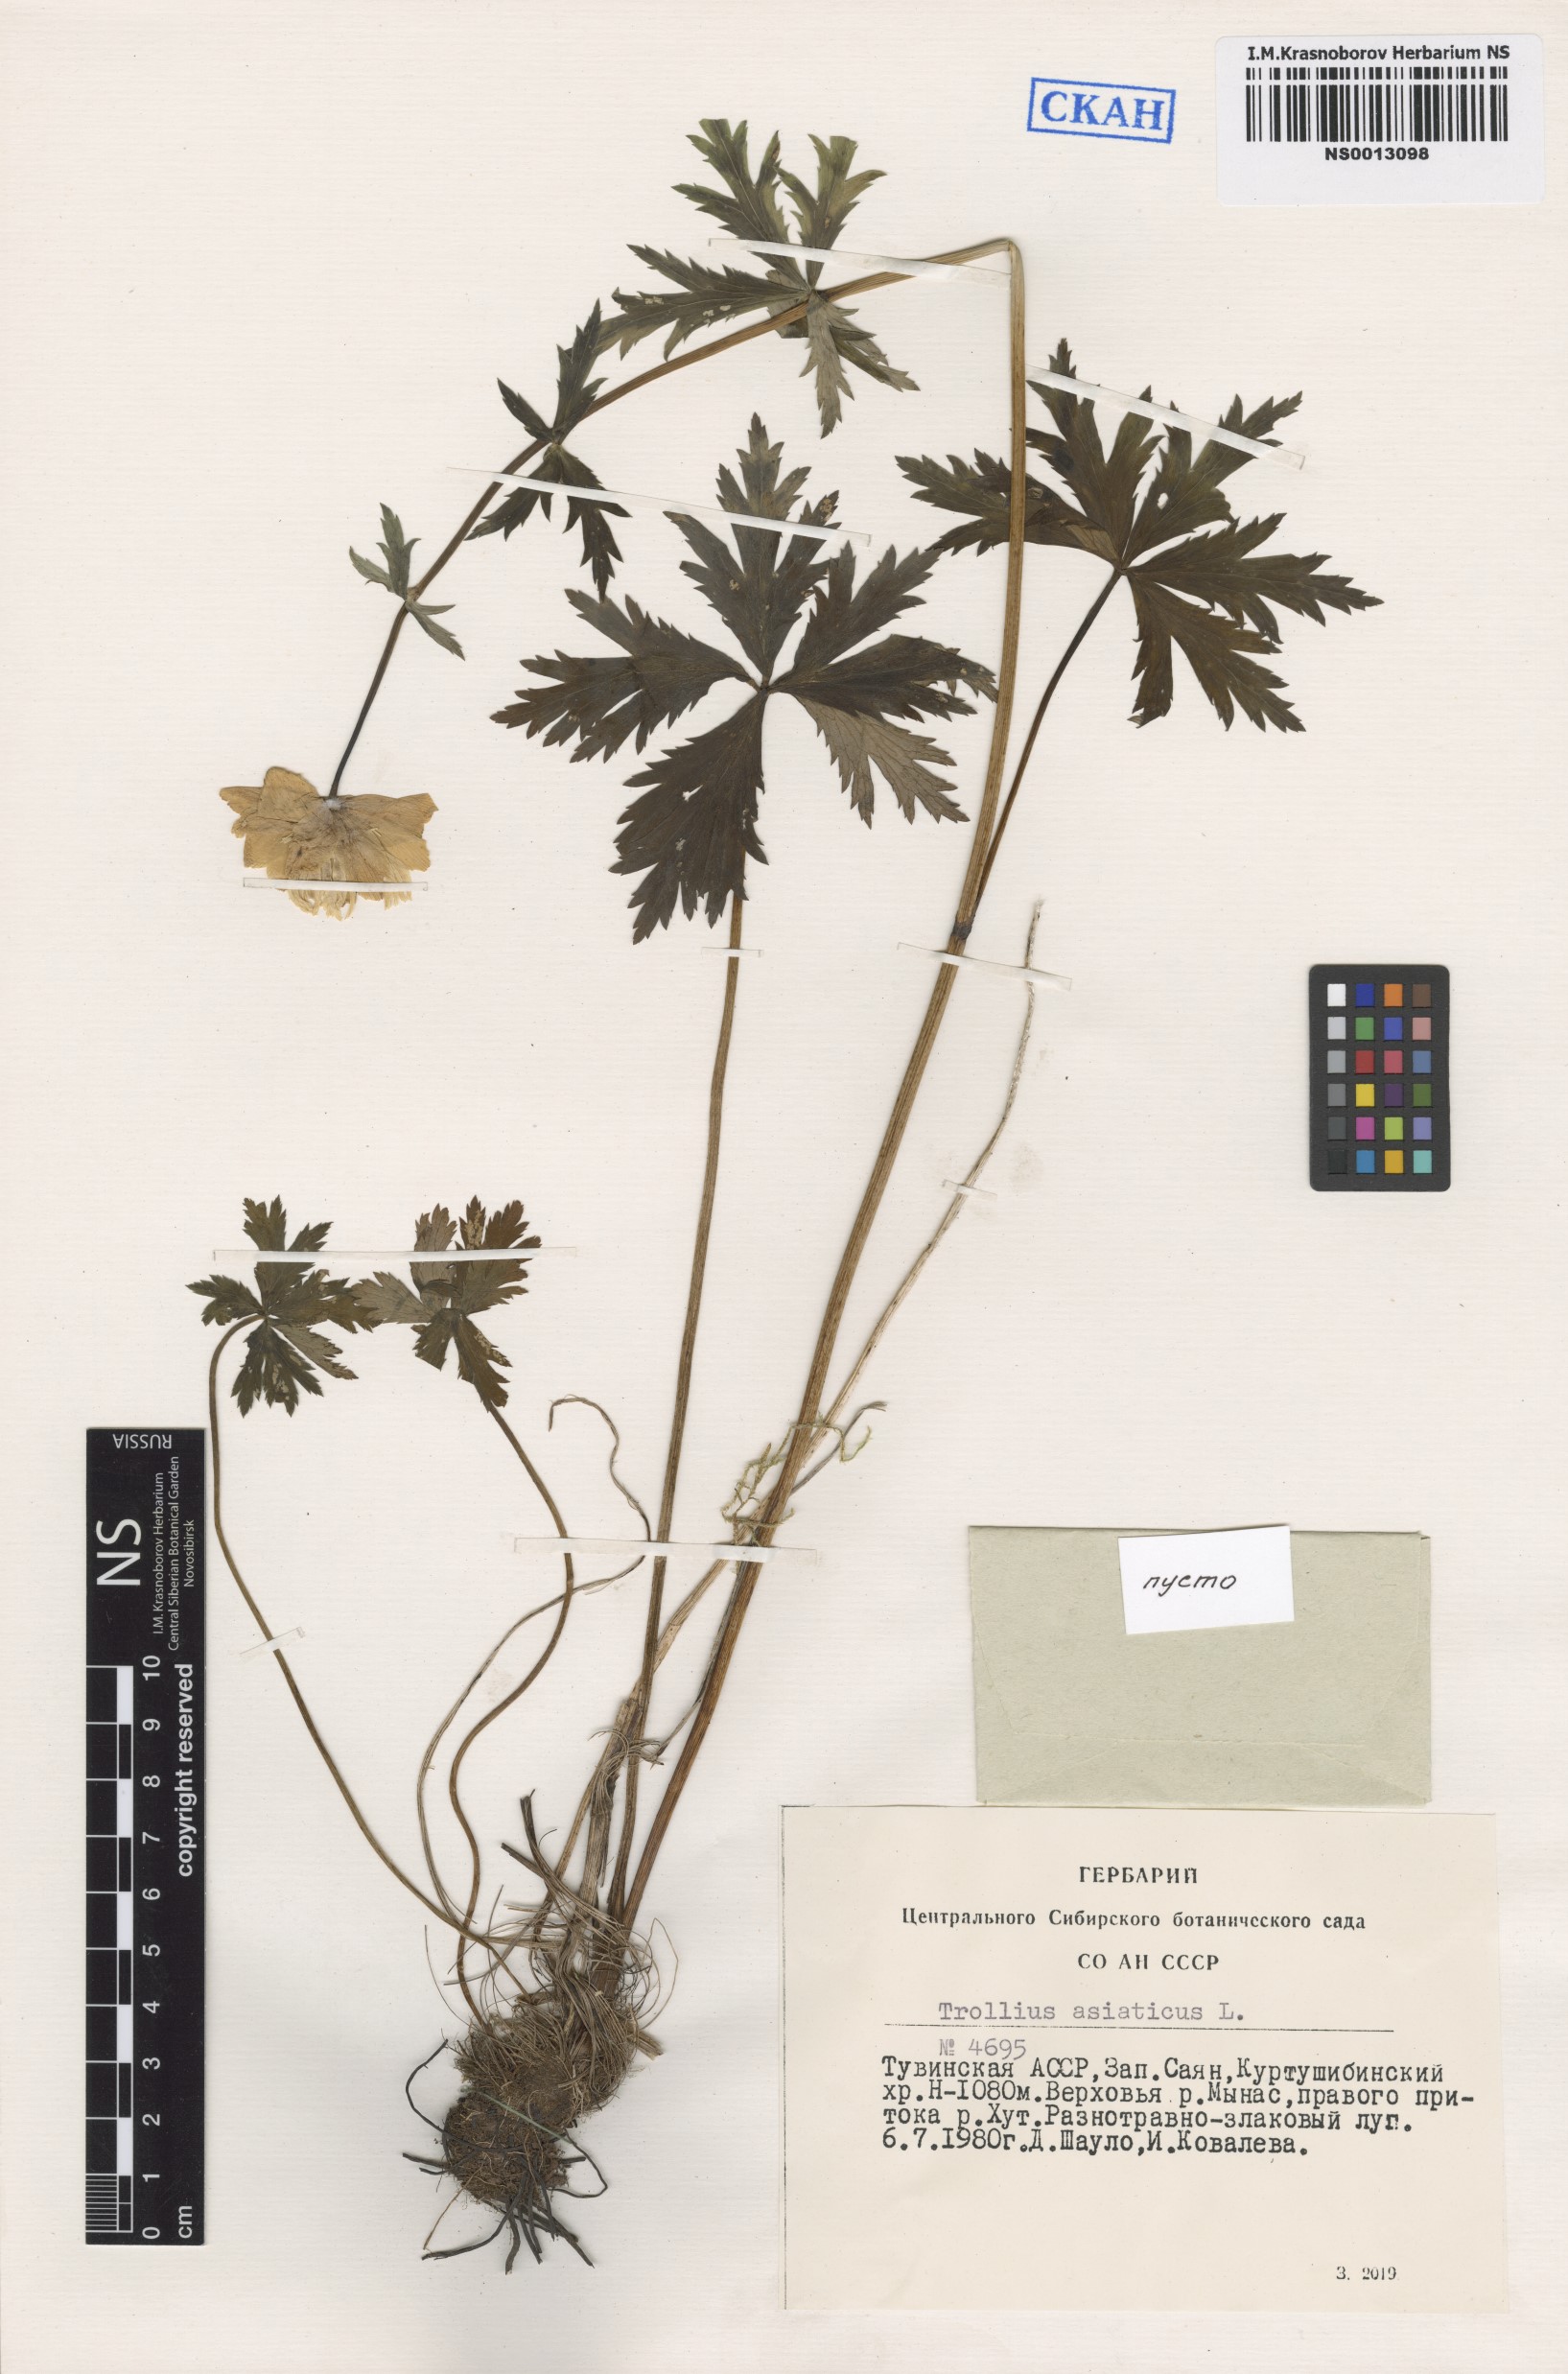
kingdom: Plantae
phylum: Tracheophyta
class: Magnoliopsida
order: Ranunculales
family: Ranunculaceae
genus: Trollius
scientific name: Trollius asiaticus
